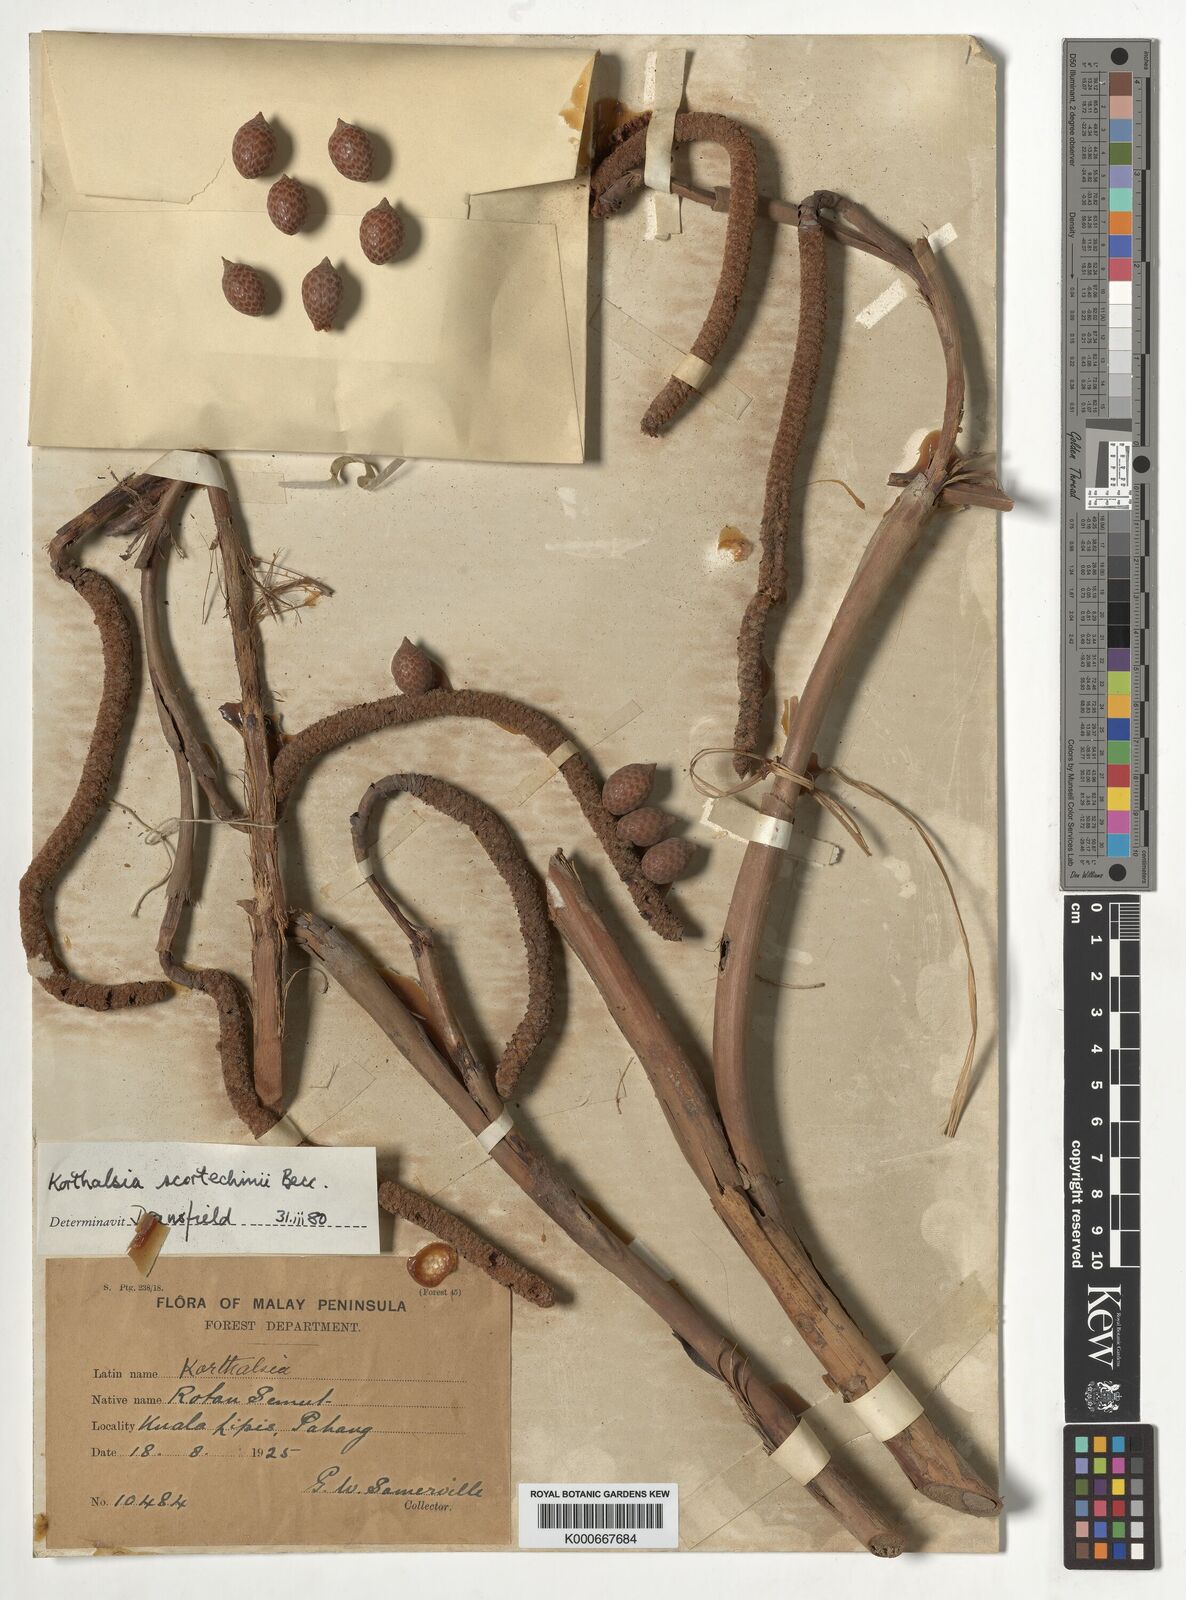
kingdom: Plantae
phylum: Tracheophyta
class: Liliopsida
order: Arecales
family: Arecaceae
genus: Korthalsia
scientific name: Korthalsia scortechinii
